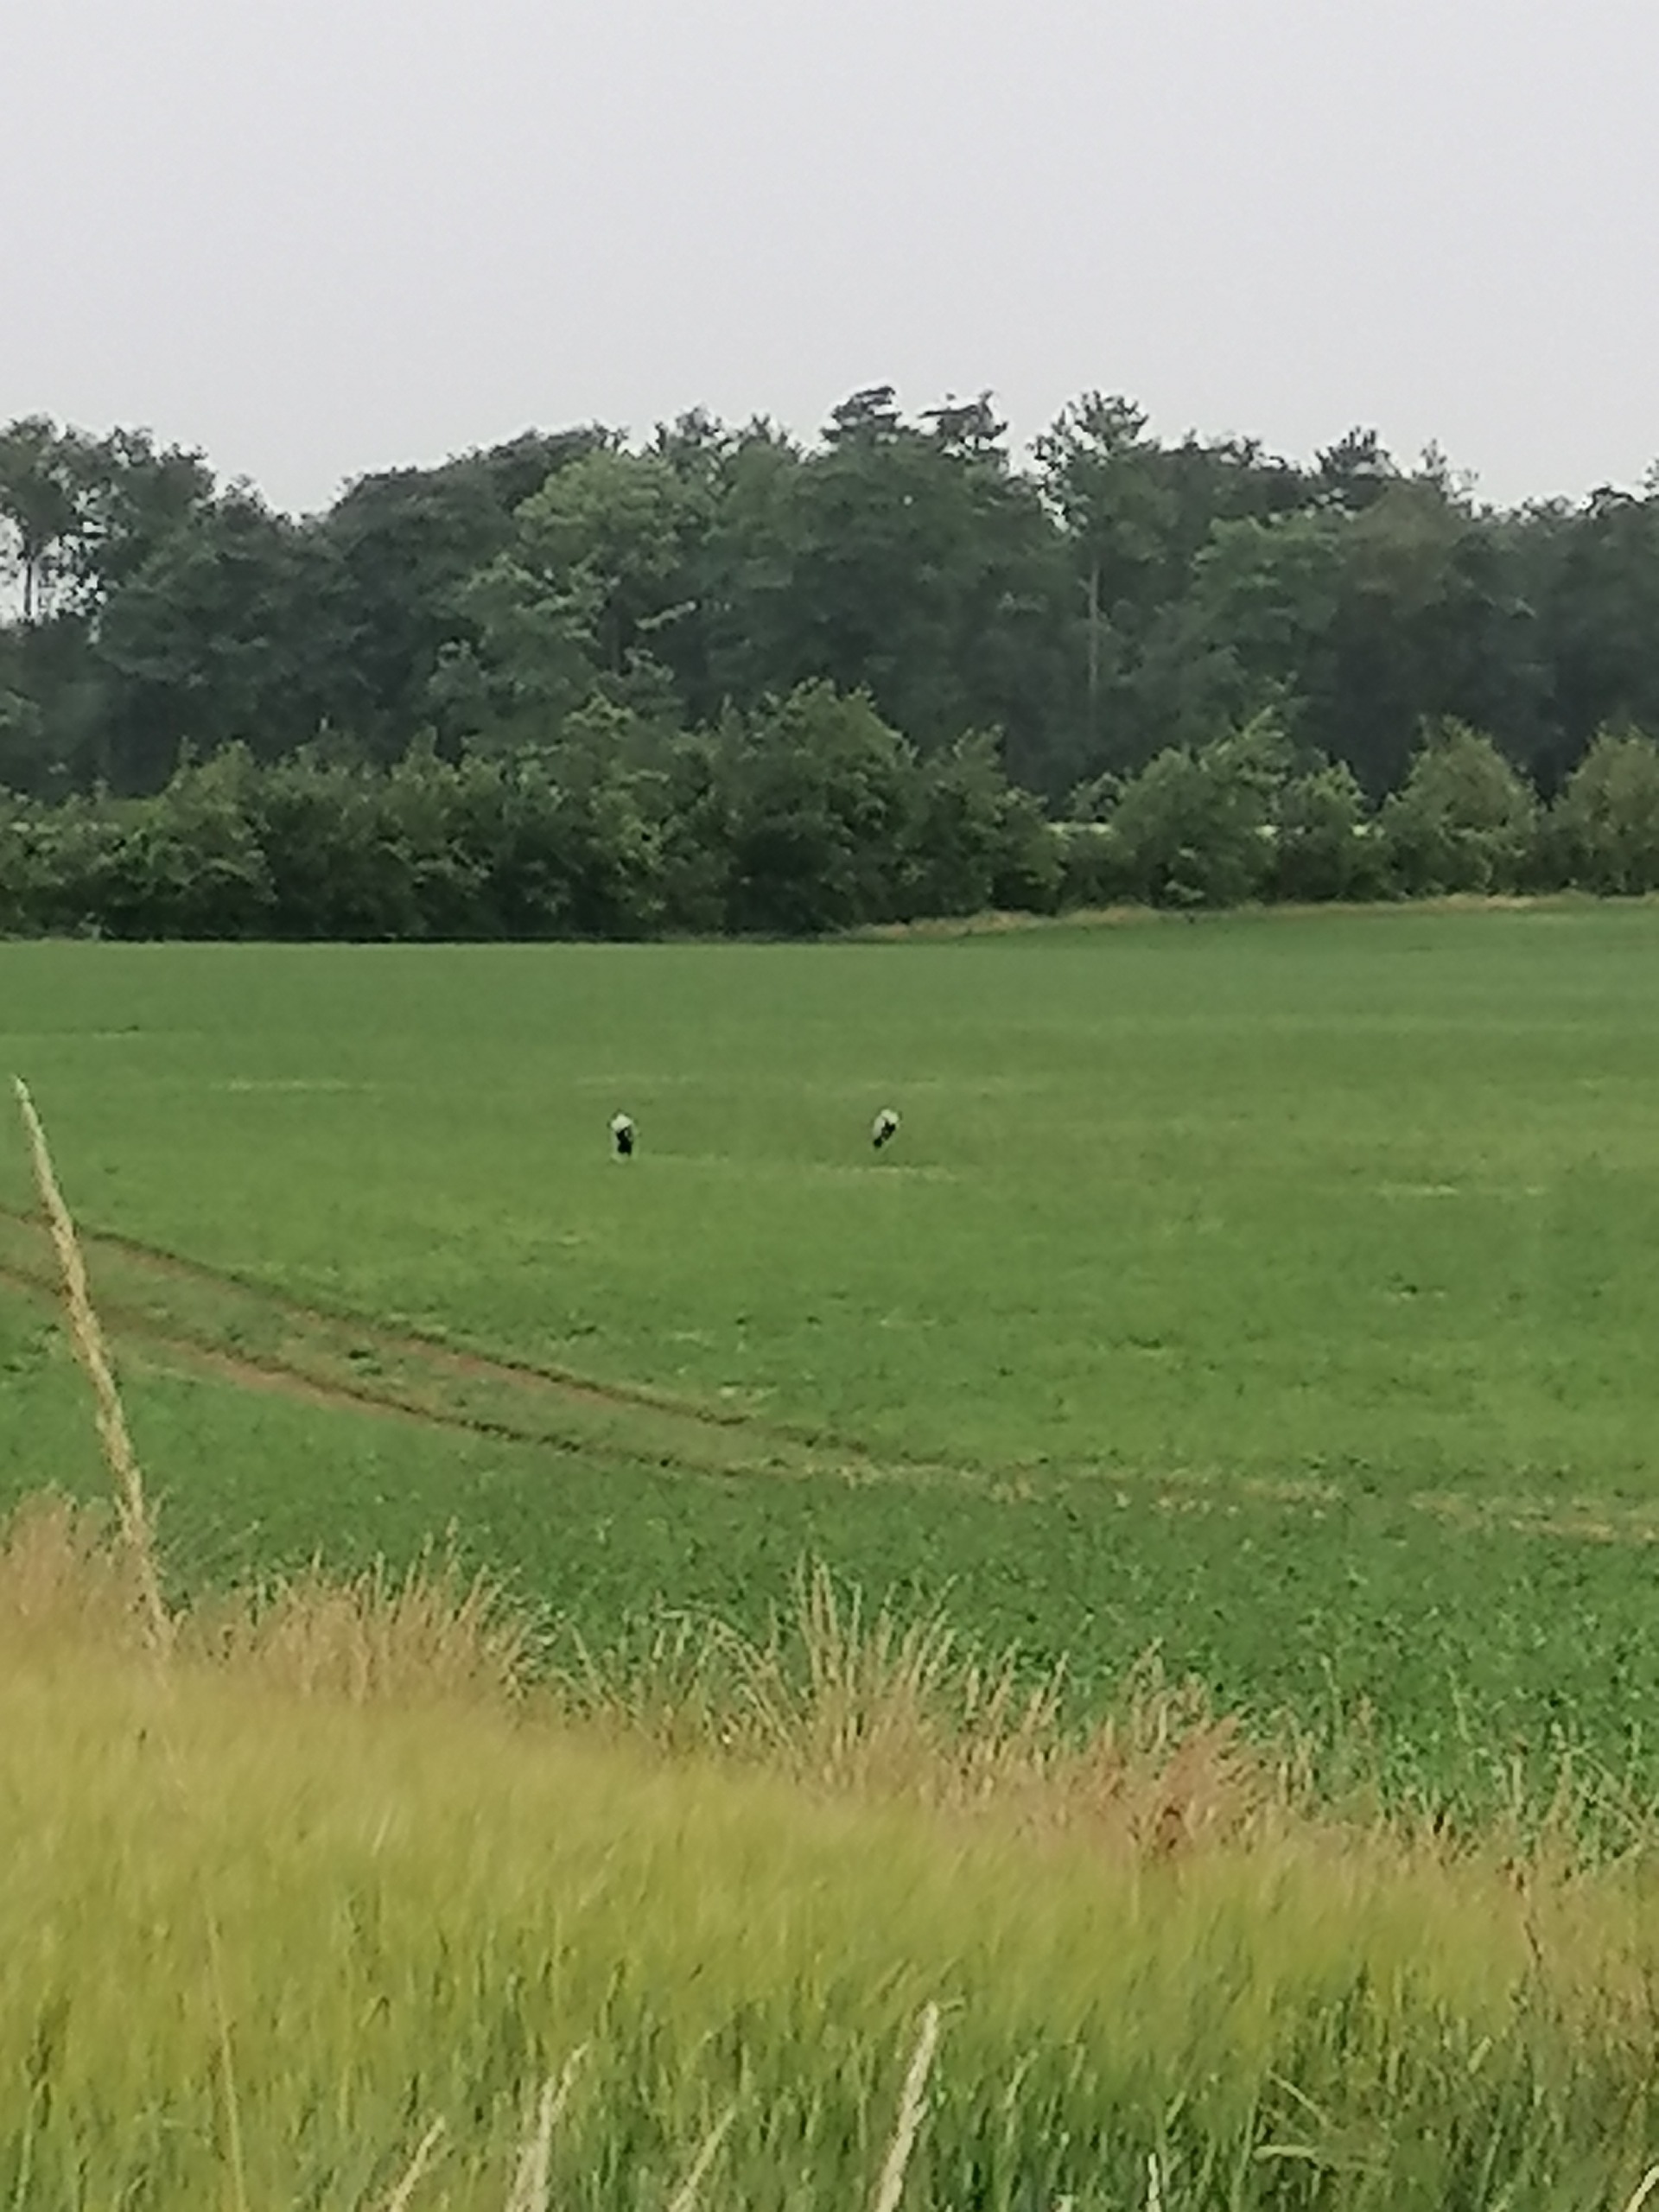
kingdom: Animalia
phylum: Chordata
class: Aves
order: Gruiformes
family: Gruidae
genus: Grus
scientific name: Grus grus
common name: Trane
